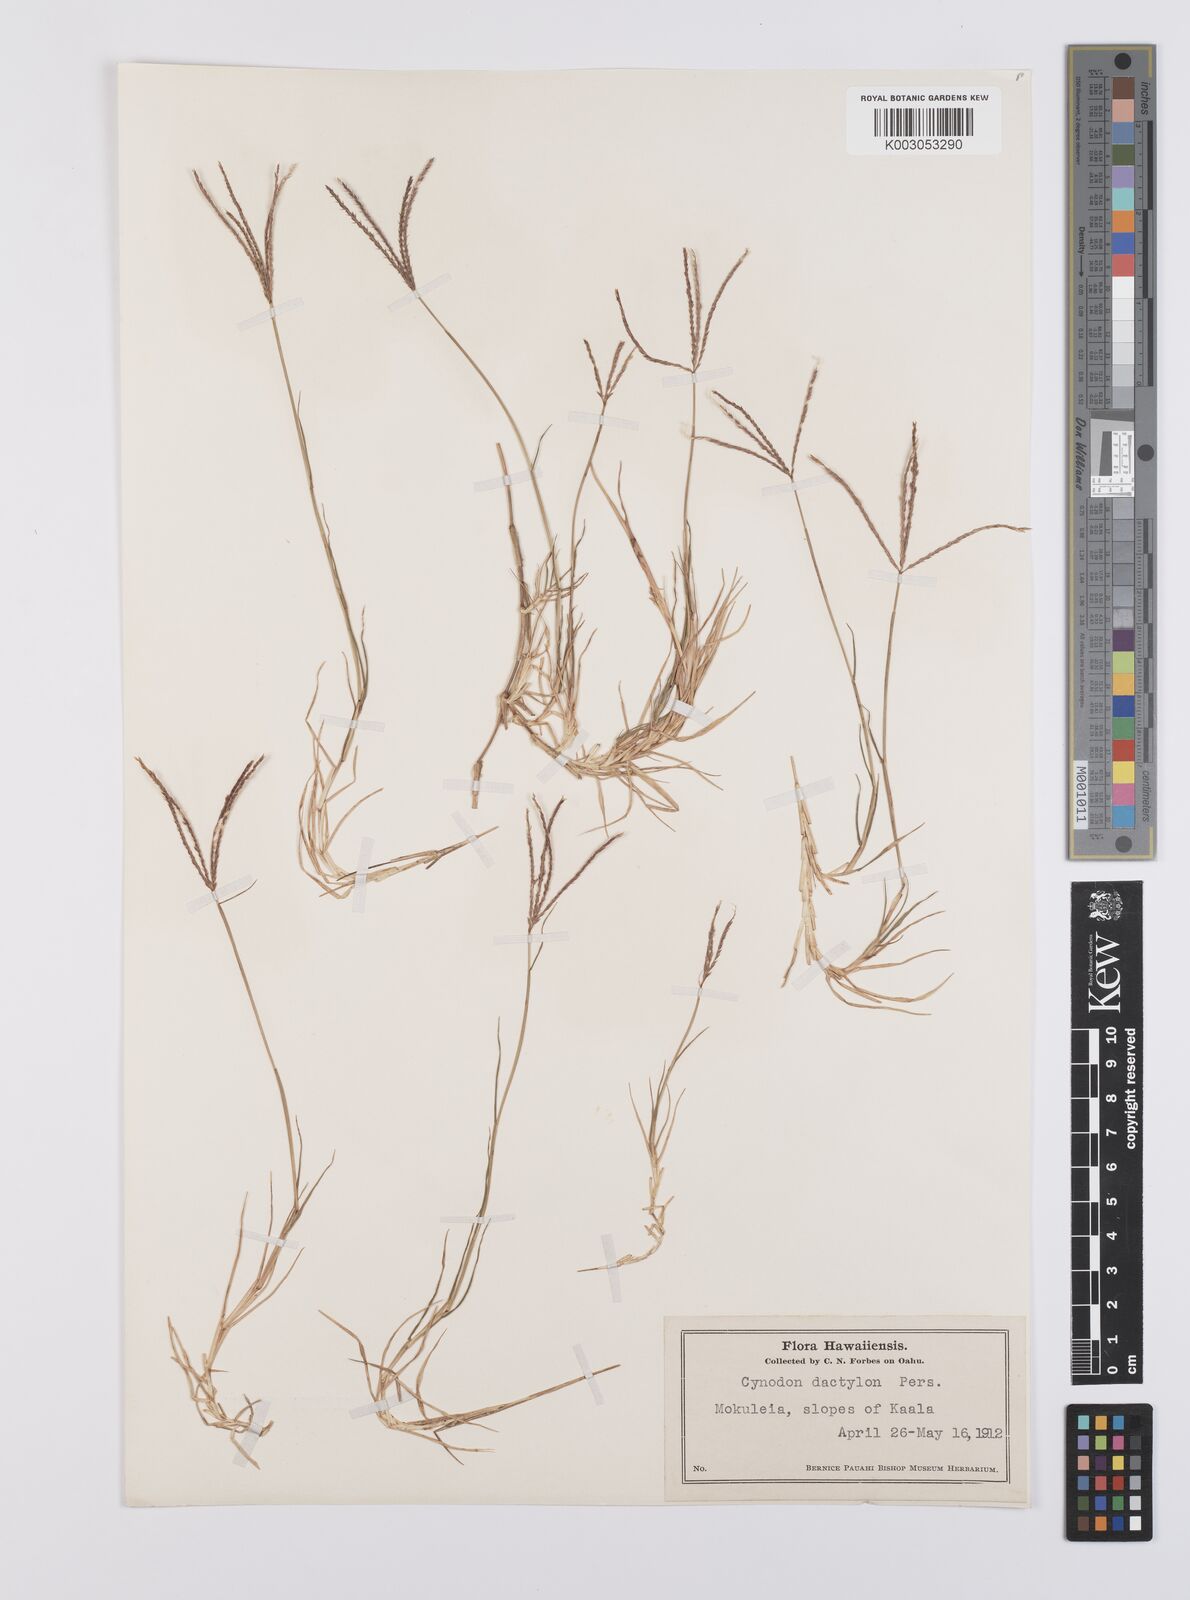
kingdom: Plantae
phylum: Tracheophyta
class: Liliopsida
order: Poales
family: Poaceae
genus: Cynodon
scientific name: Cynodon dactylon
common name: Bermuda grass
